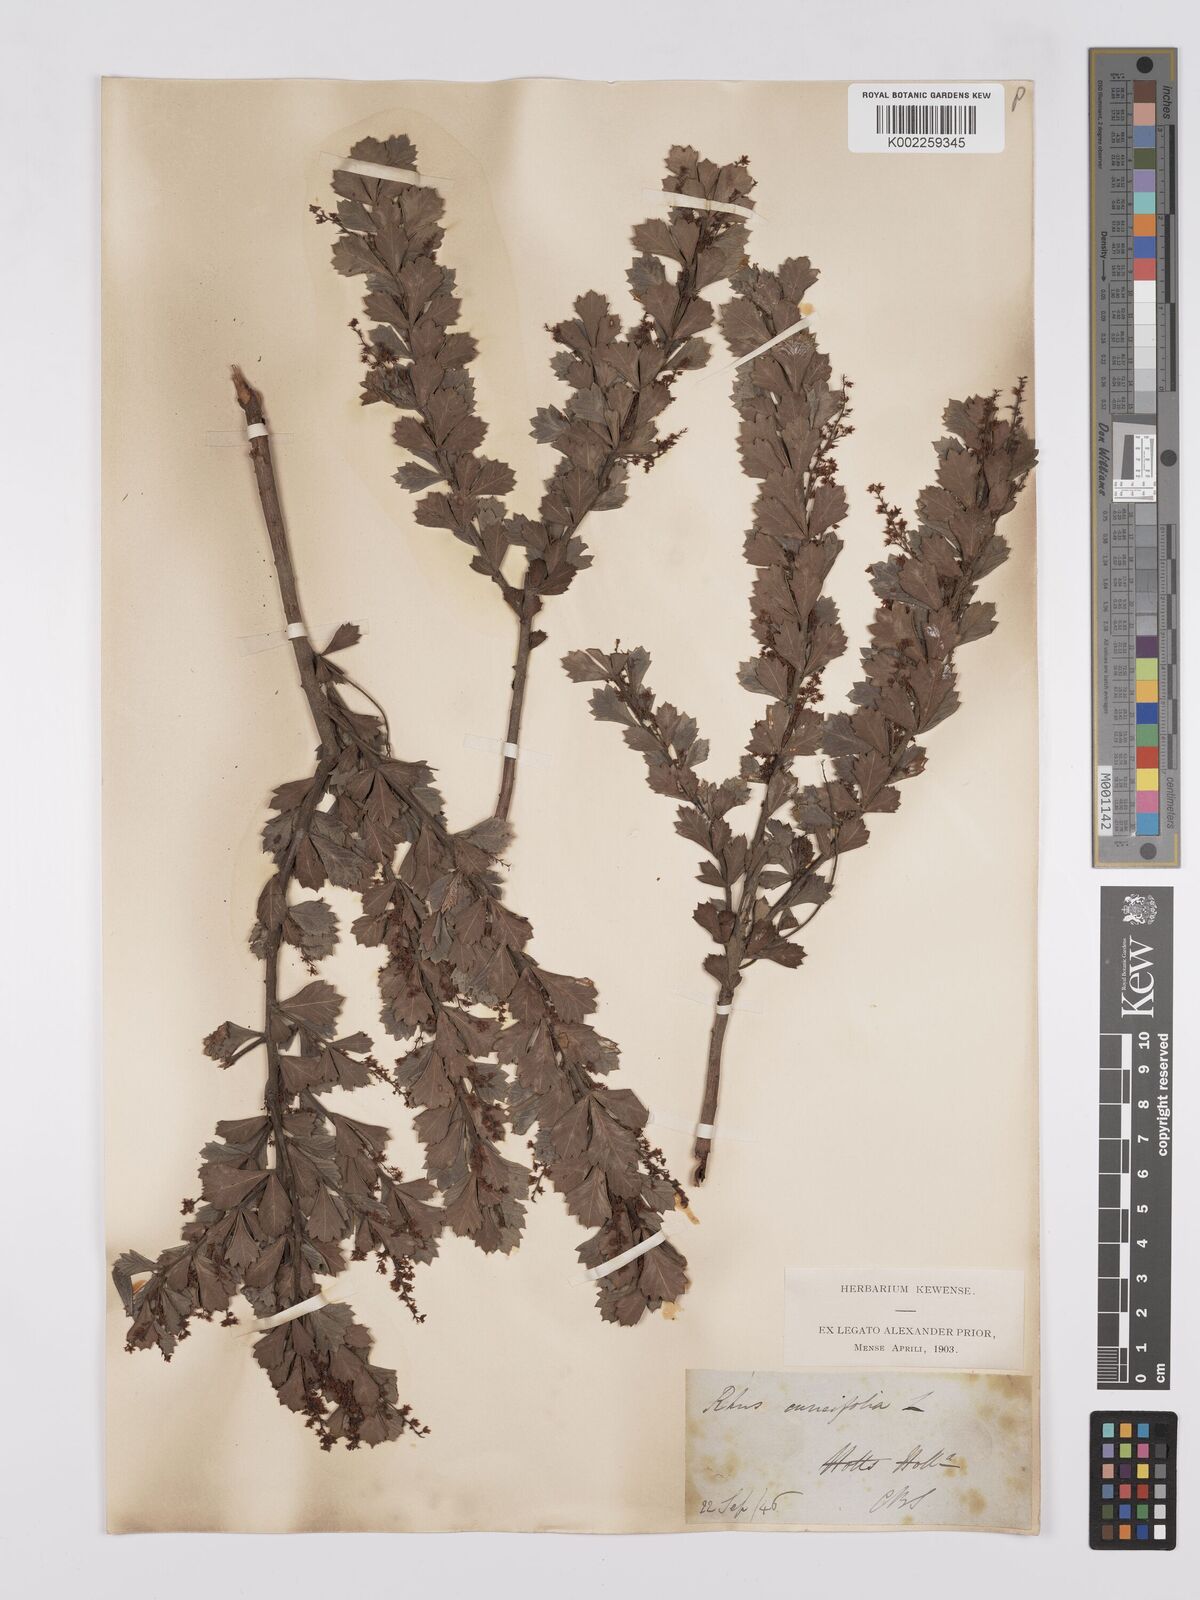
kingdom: Plantae
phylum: Tracheophyta
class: Magnoliopsida
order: Sapindales
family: Anacardiaceae
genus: Searsia
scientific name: Searsia cuneifolia
